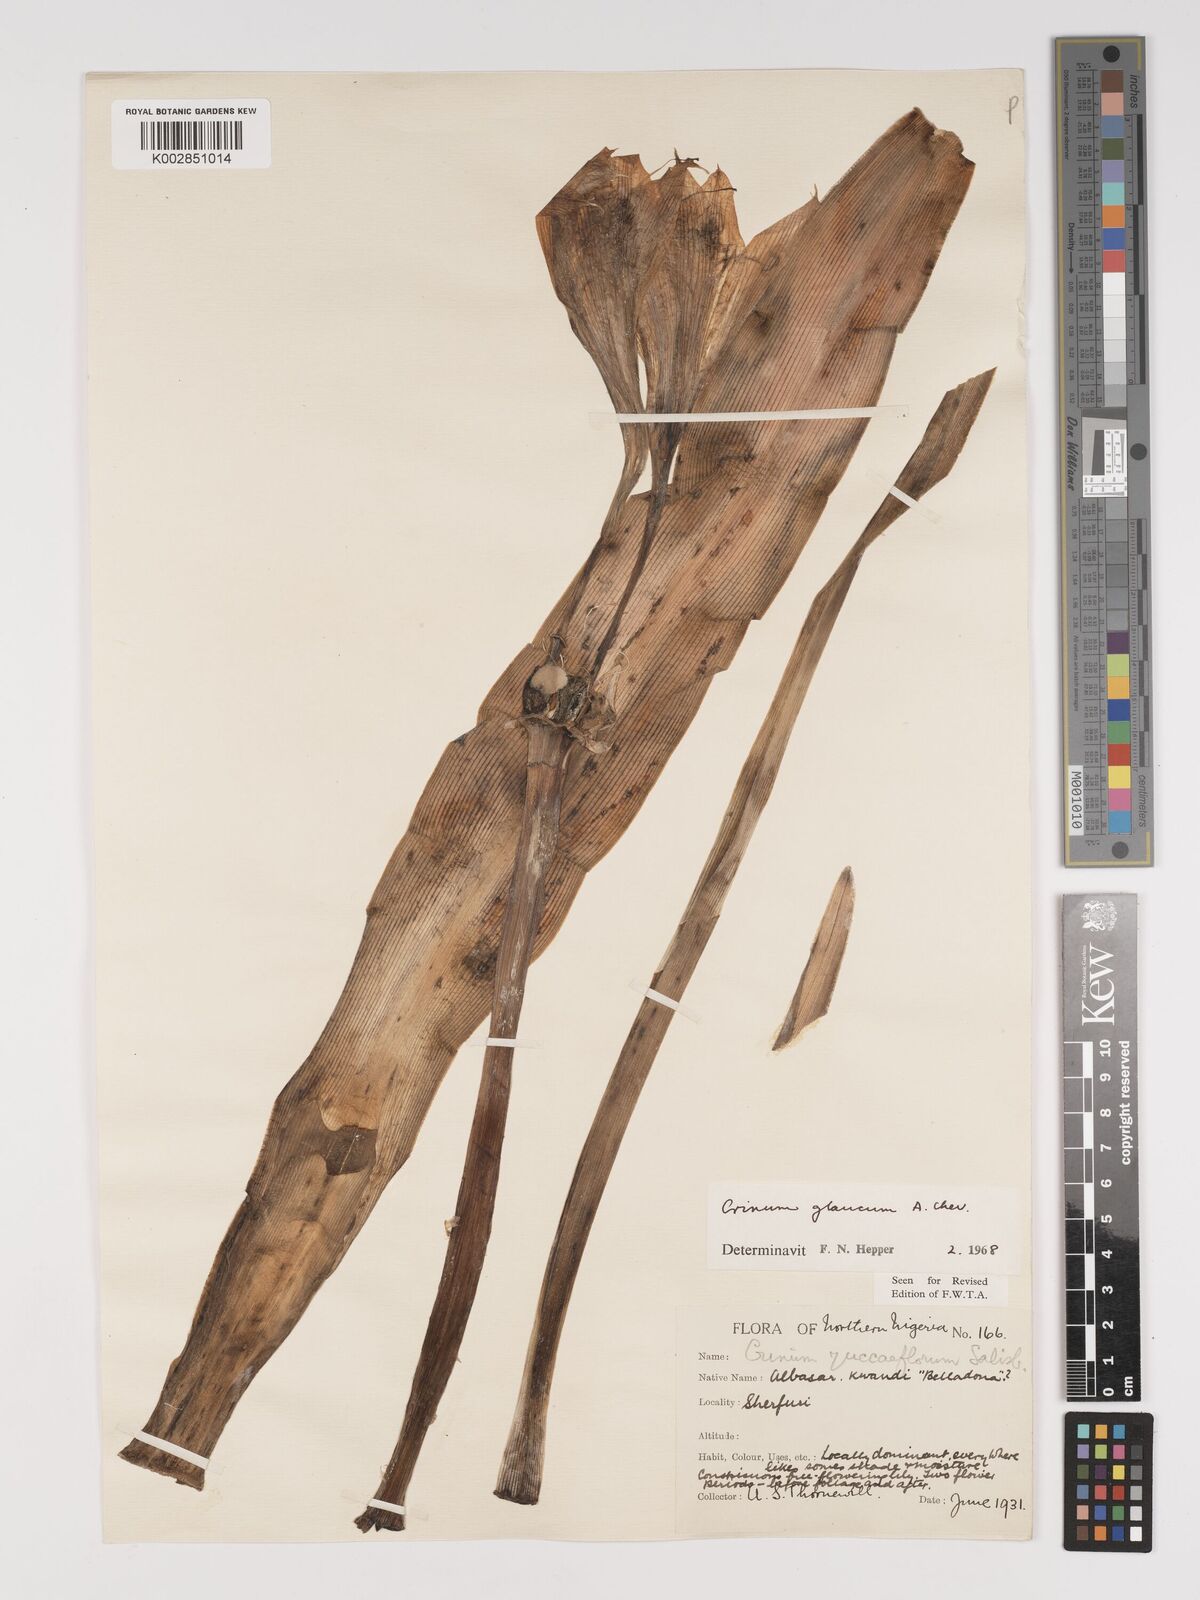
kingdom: Plantae
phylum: Tracheophyta
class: Liliopsida
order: Asparagales
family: Amaryllidaceae
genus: Crinum
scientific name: Crinum glaucum
